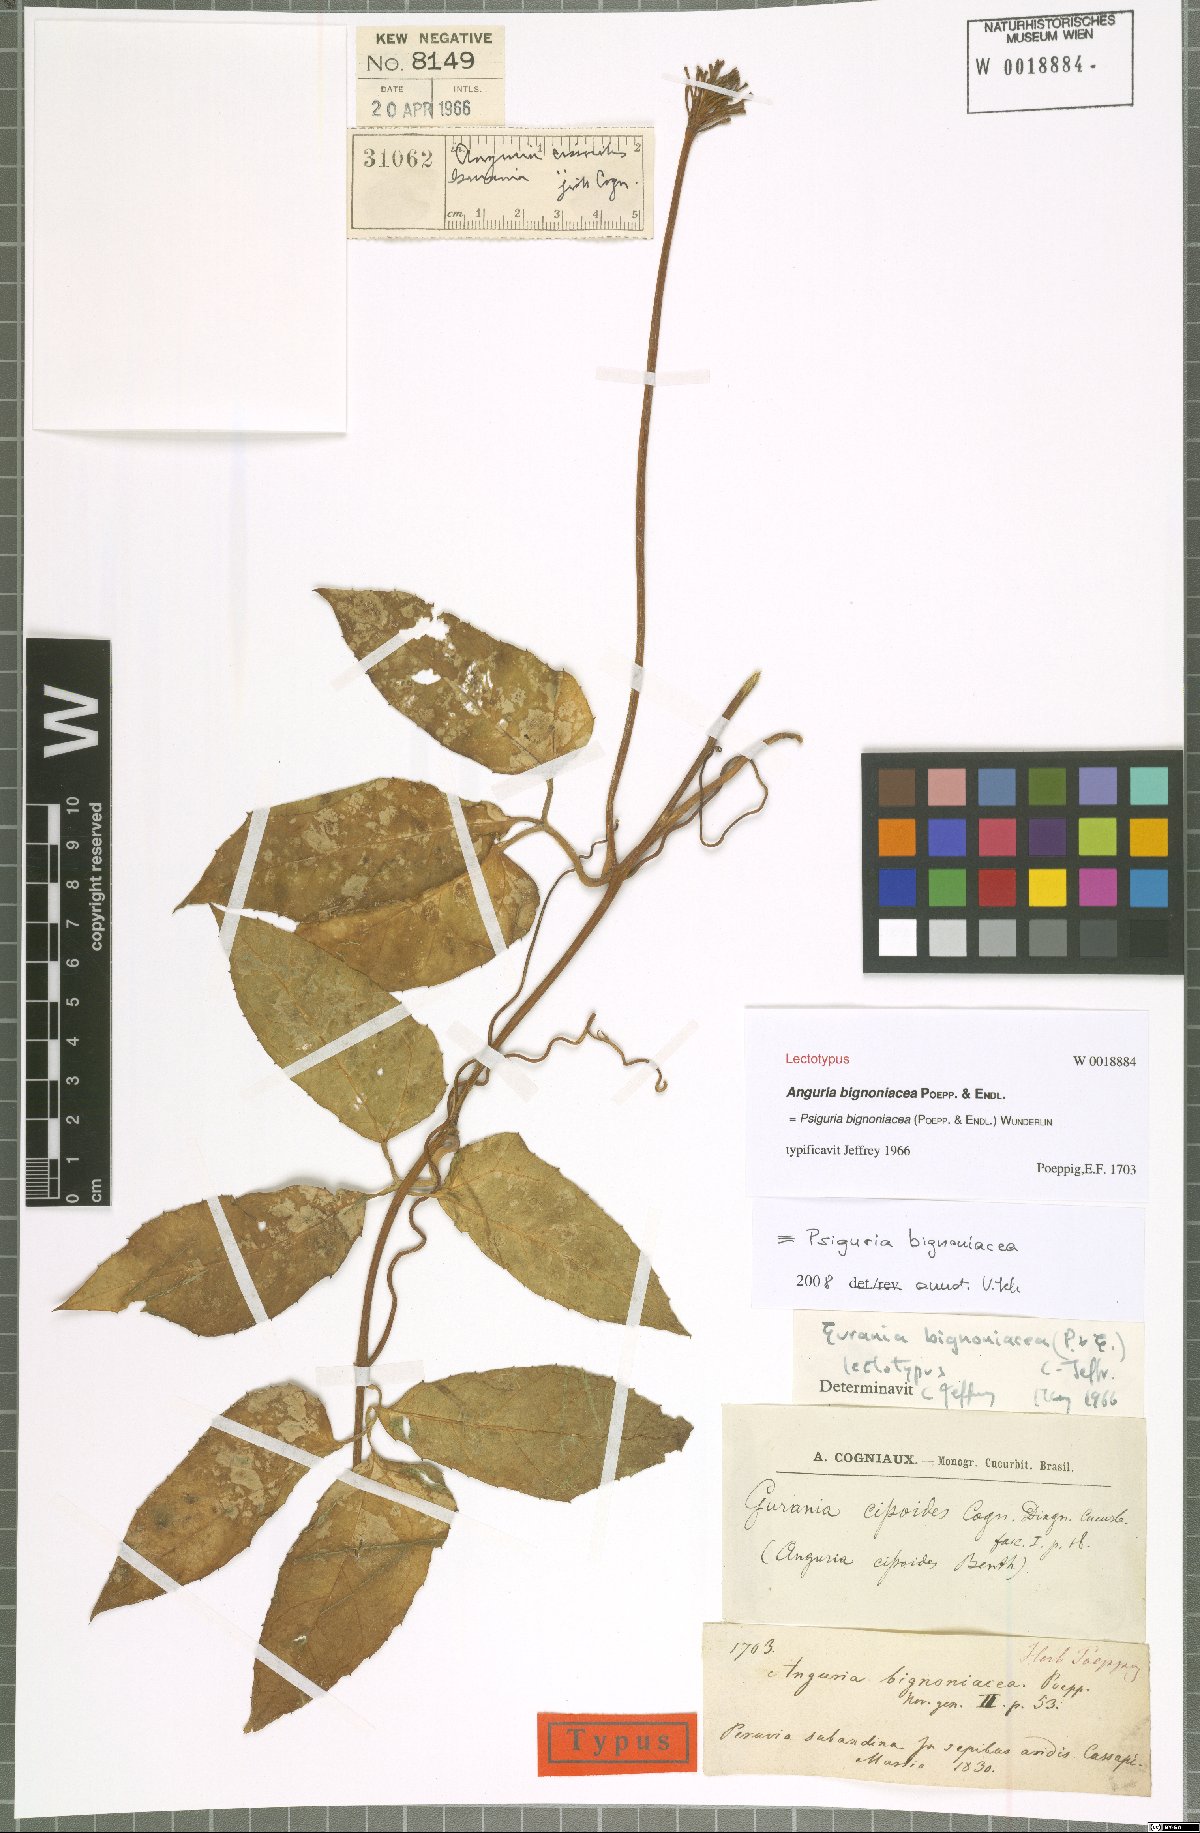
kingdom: Plantae
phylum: Tracheophyta
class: Magnoliopsida
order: Cucurbitales
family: Cucurbitaceae
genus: Gurania
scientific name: Gurania bignoniacea
